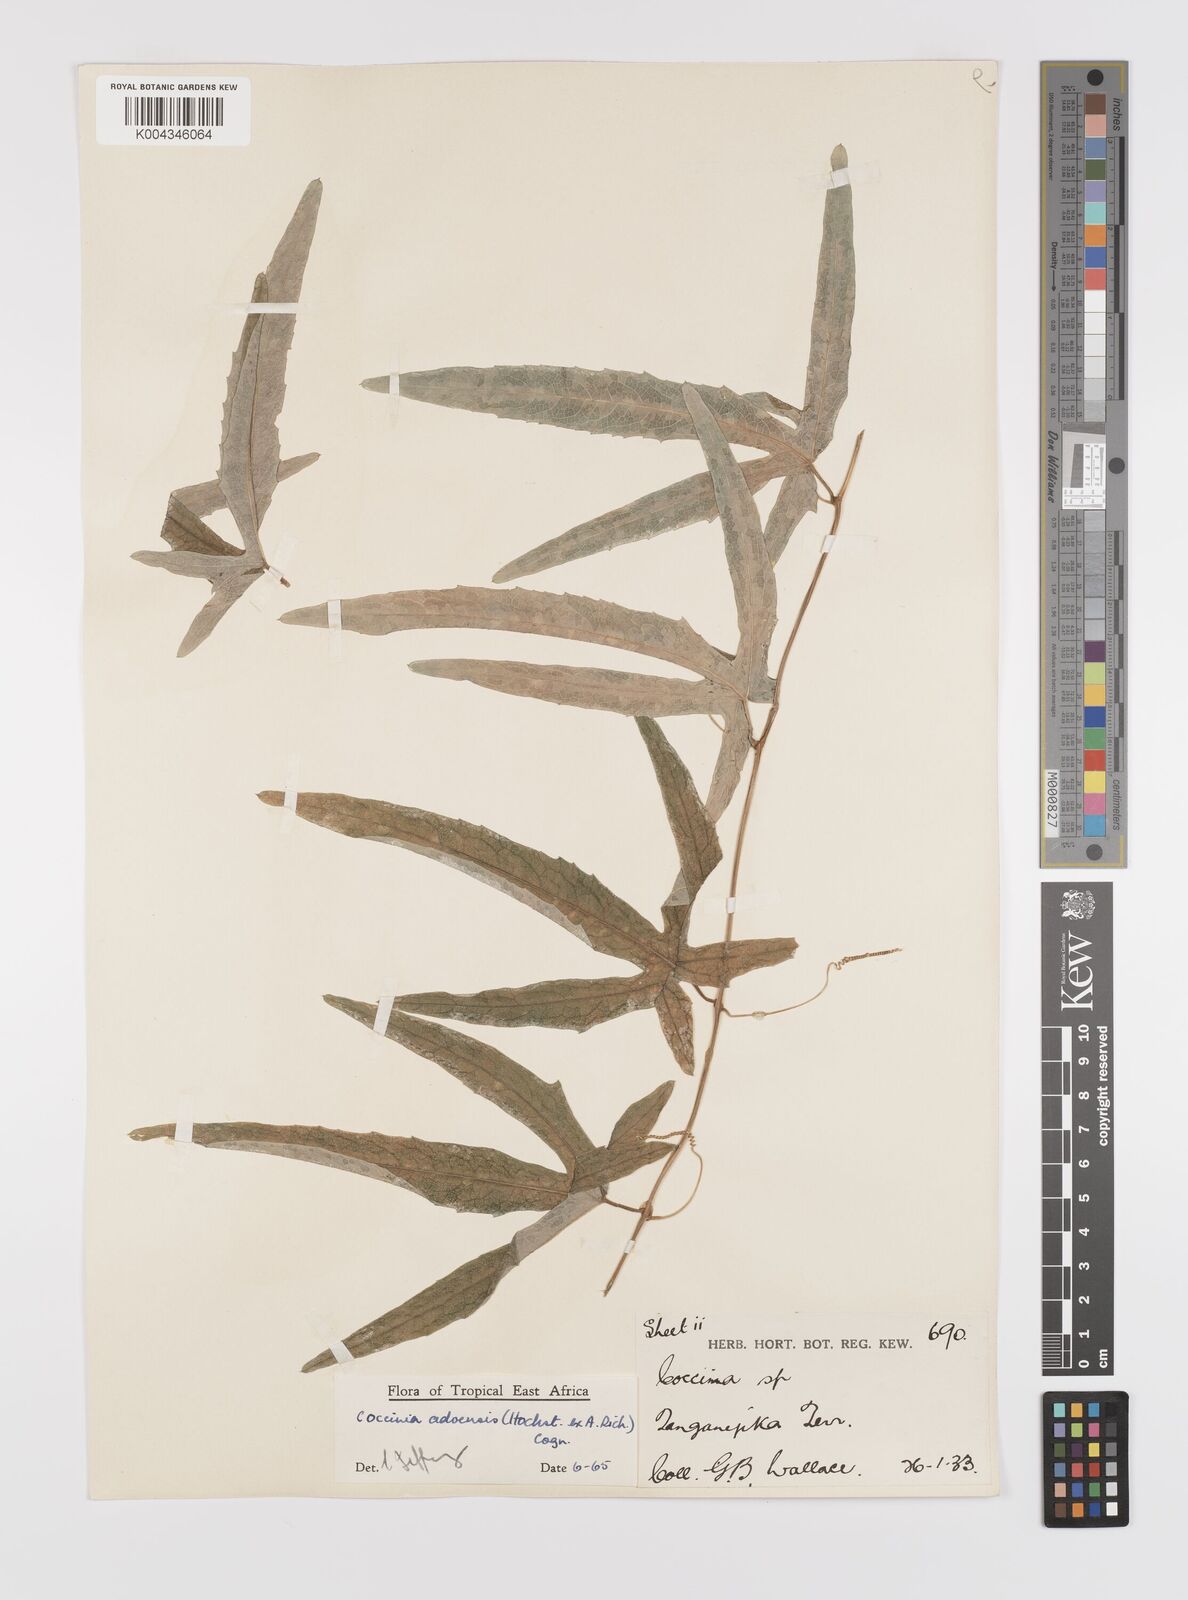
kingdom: Plantae
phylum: Tracheophyta
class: Magnoliopsida
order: Cucurbitales
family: Cucurbitaceae
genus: Coccinia
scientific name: Coccinia adoensis
